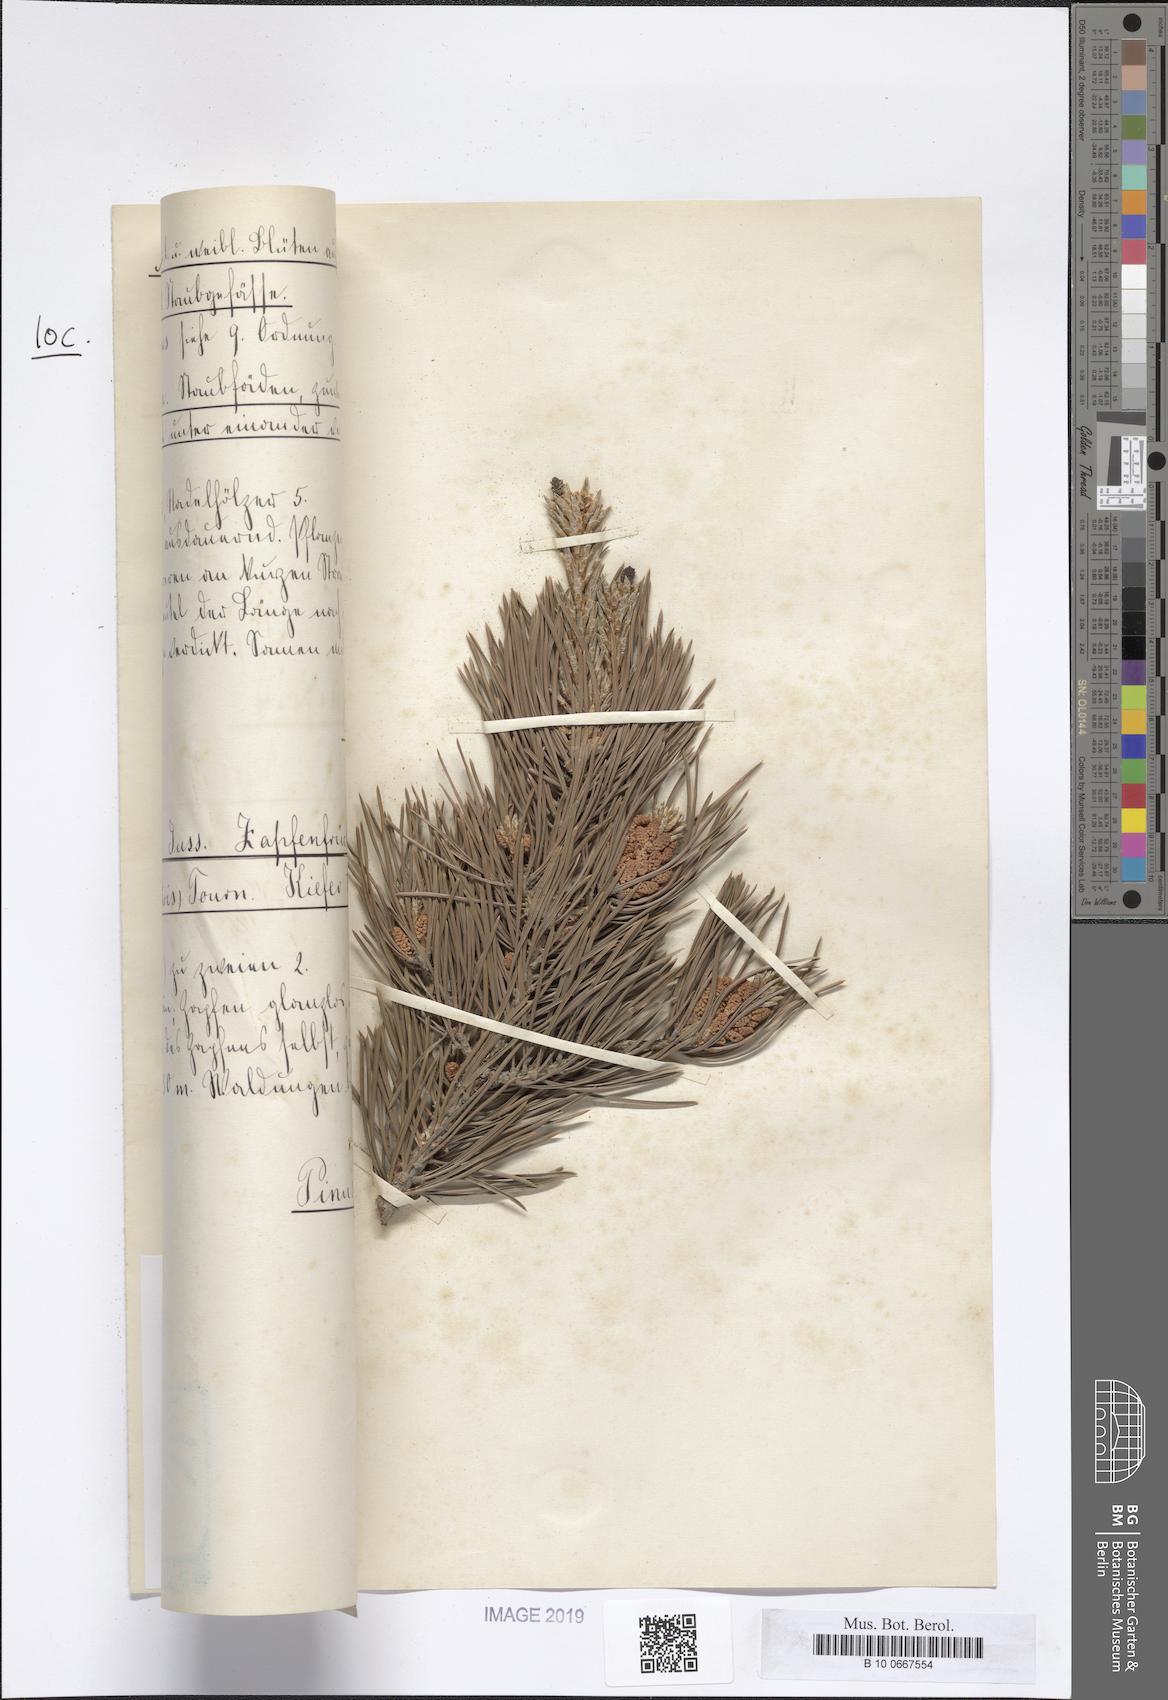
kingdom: Plantae
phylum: Tracheophyta
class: Pinopsida
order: Pinales
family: Pinaceae
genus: Pinus
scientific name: Pinus sylvestris
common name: Scots pine
